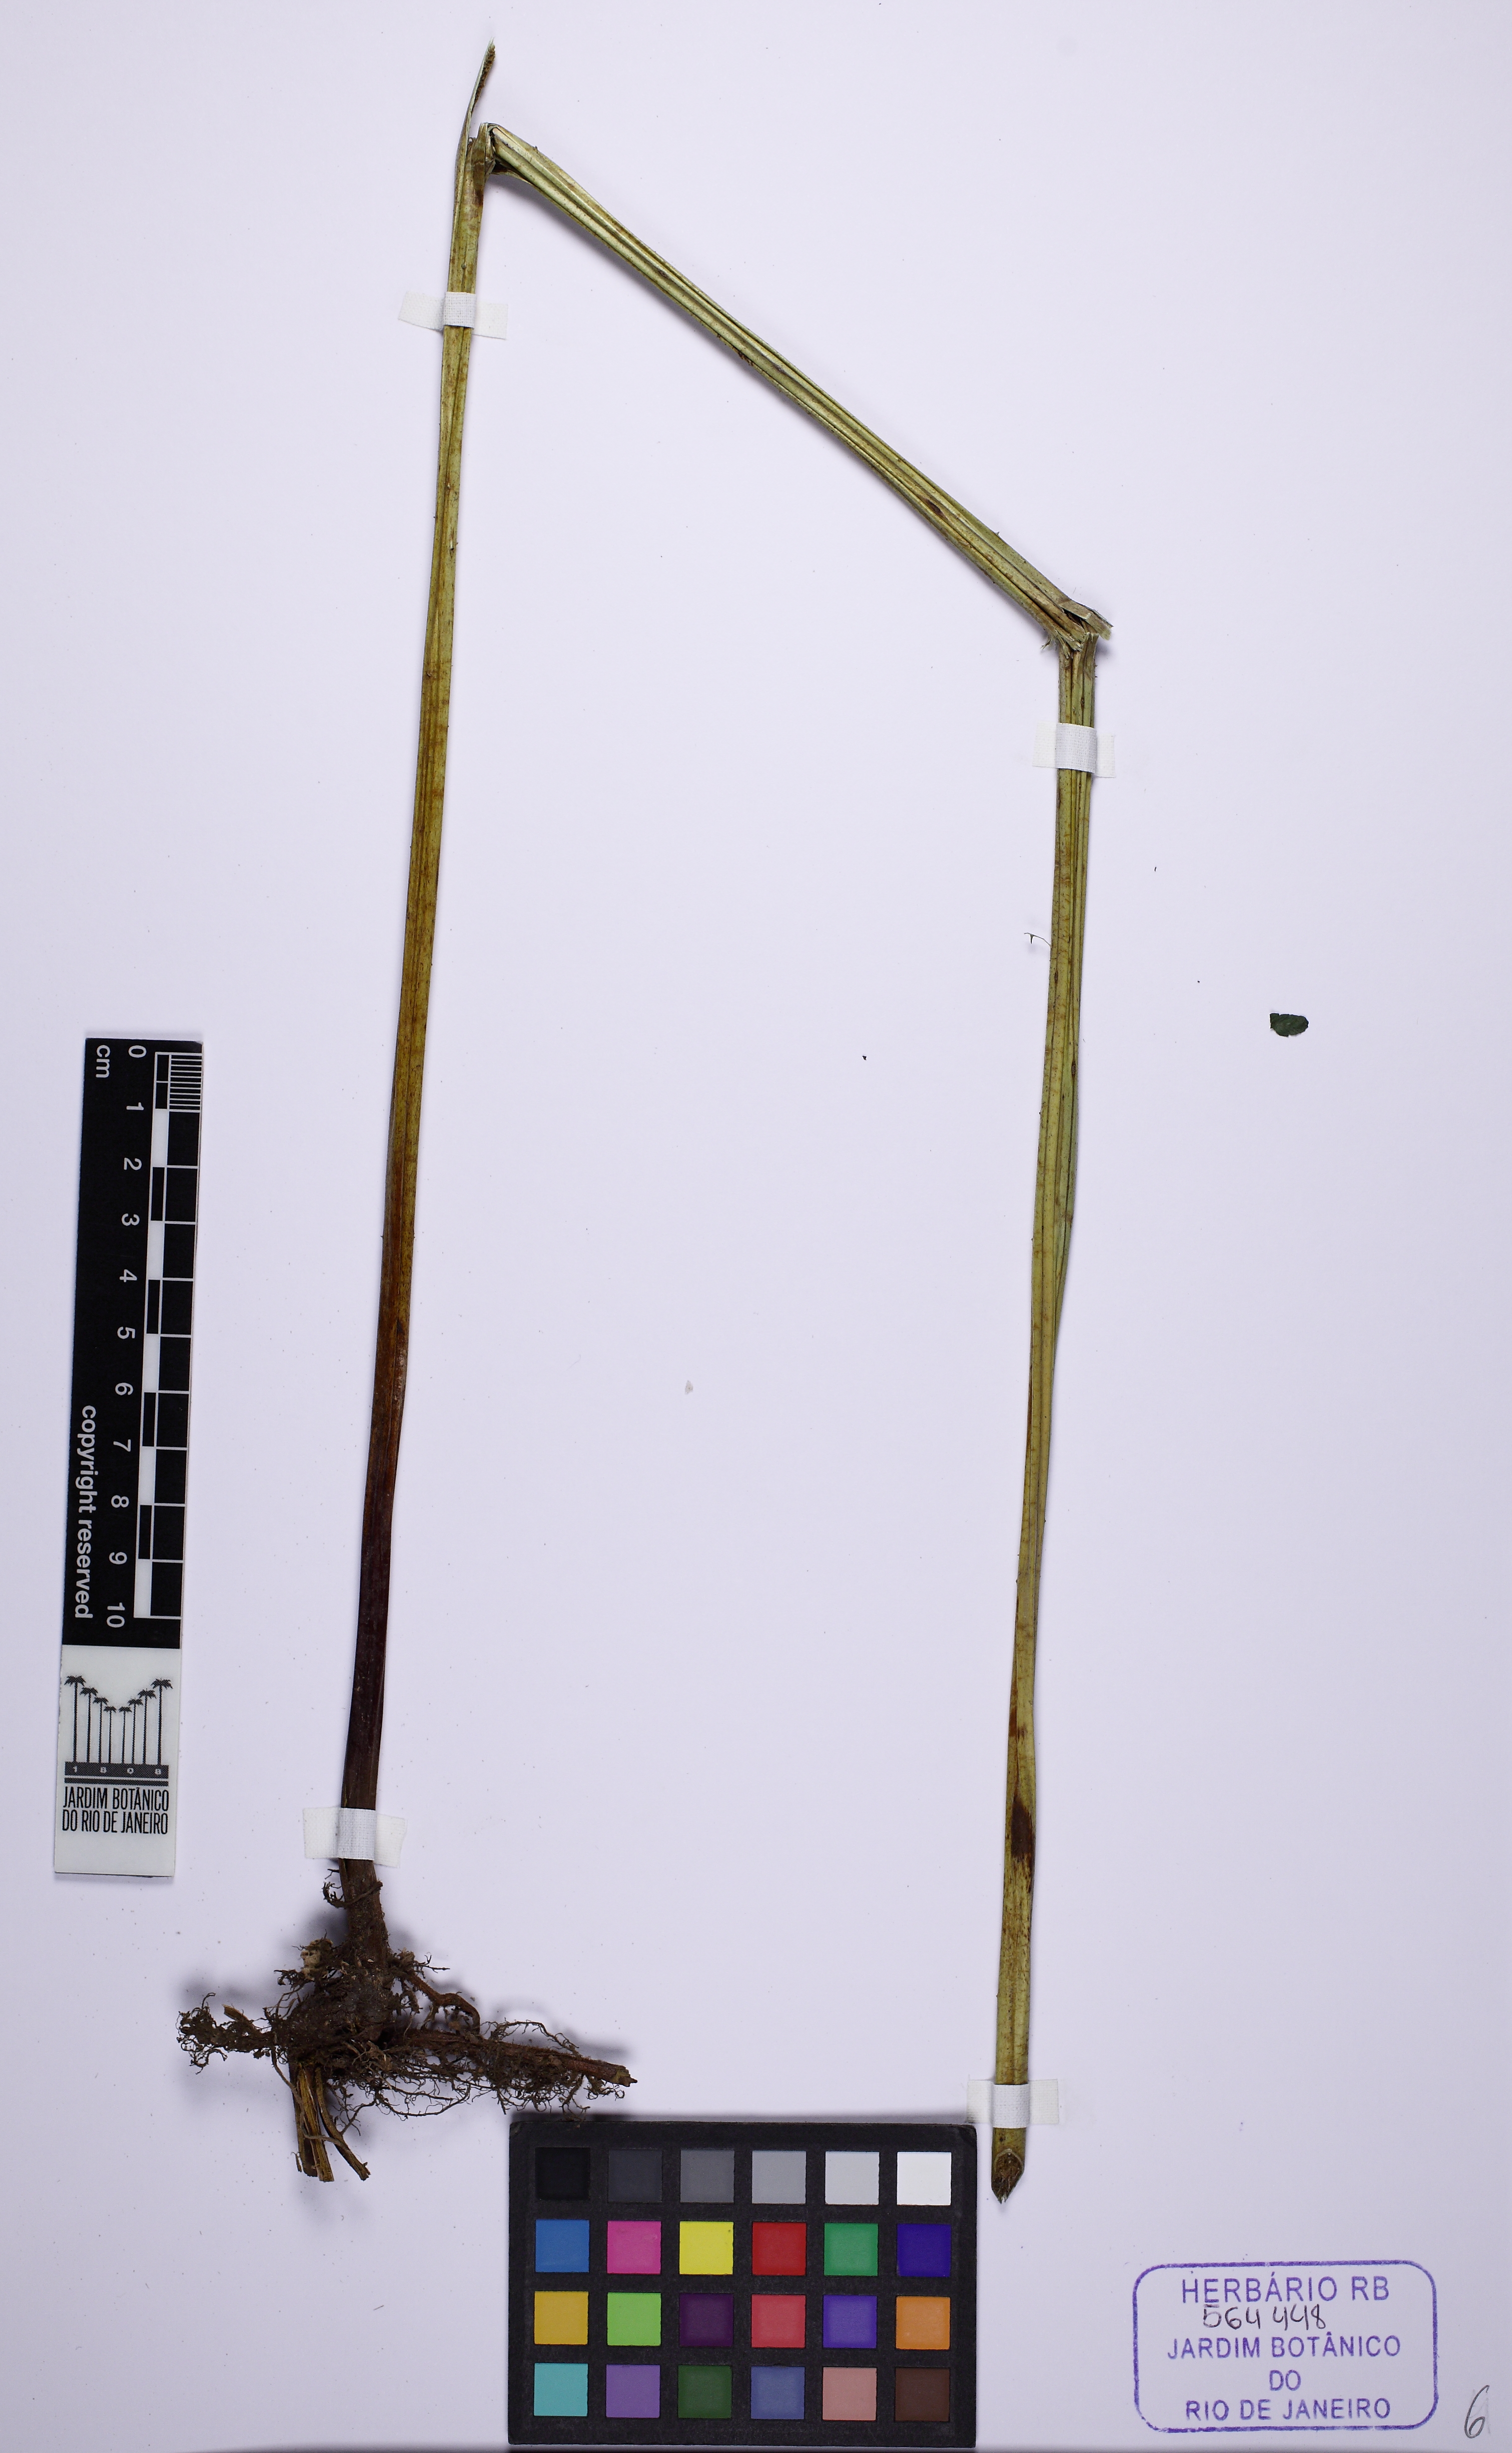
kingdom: Plantae
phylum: Tracheophyta
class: Polypodiopsida
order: Polypodiales
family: Dennstaedtiaceae
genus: Hypolepis
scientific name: Hypolepis mitis
